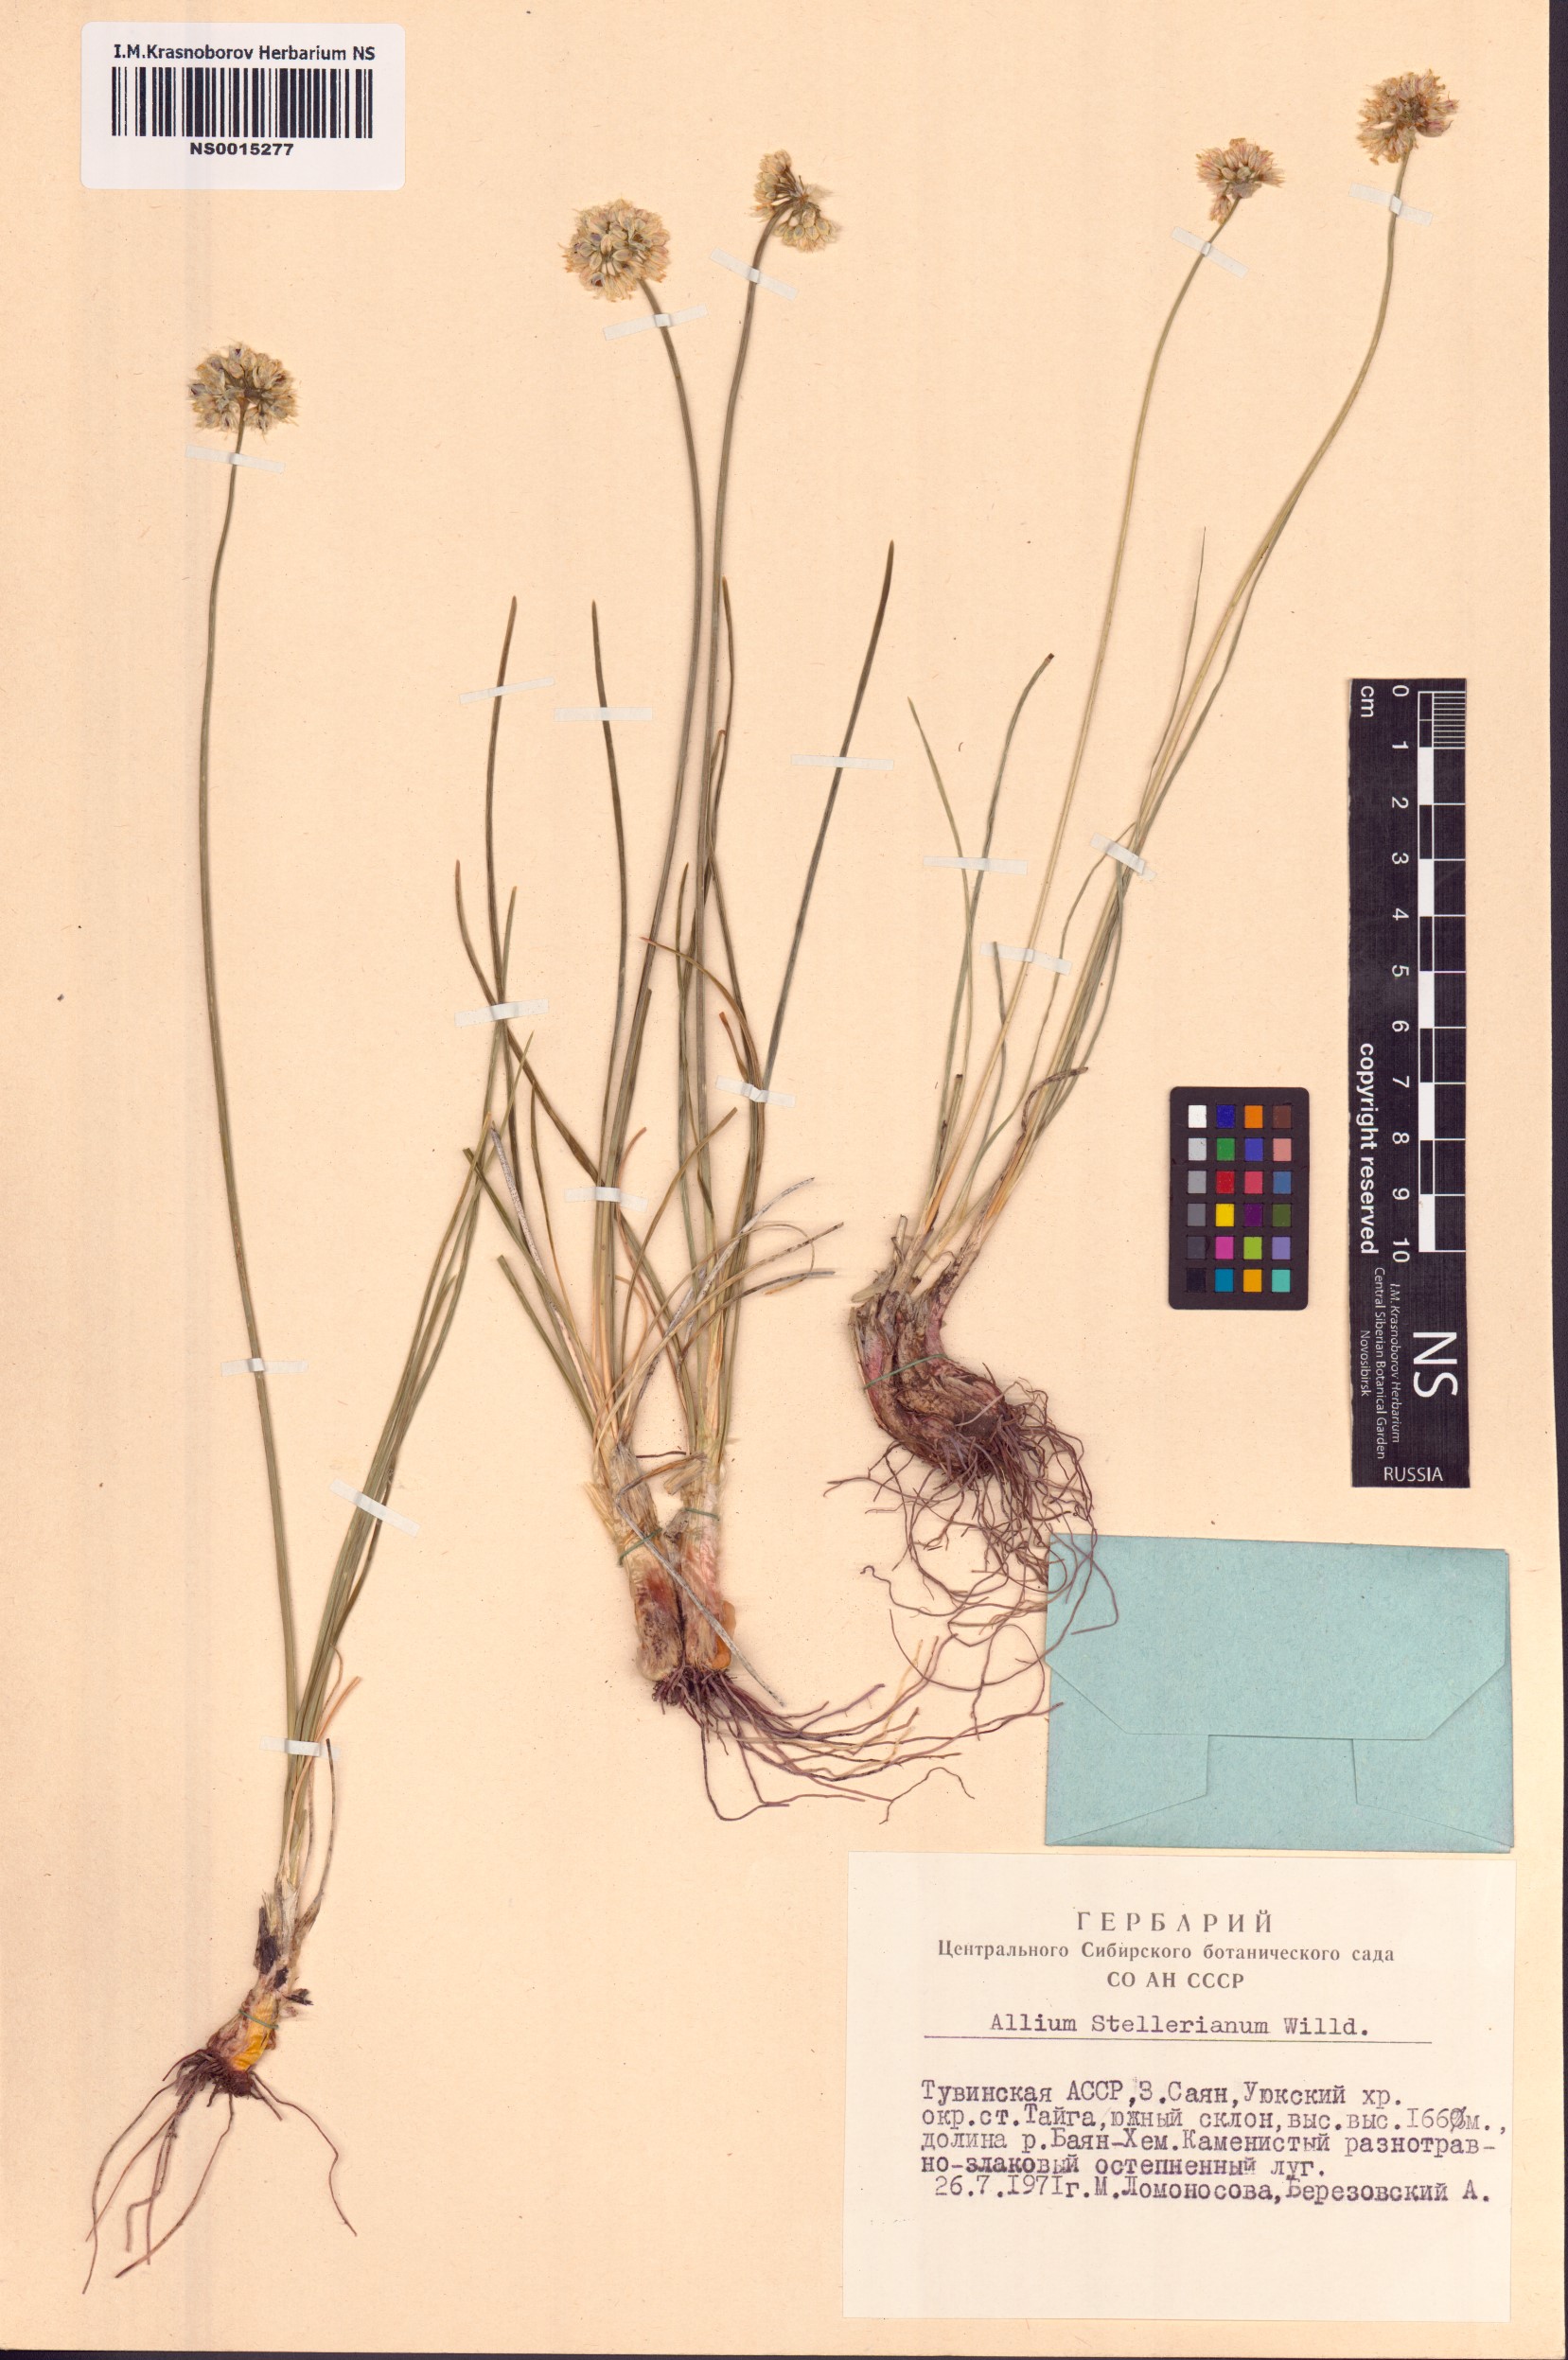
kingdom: Plantae
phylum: Tracheophyta
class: Liliopsida
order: Asparagales
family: Amaryllidaceae
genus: Allium
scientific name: Allium stellerianum
